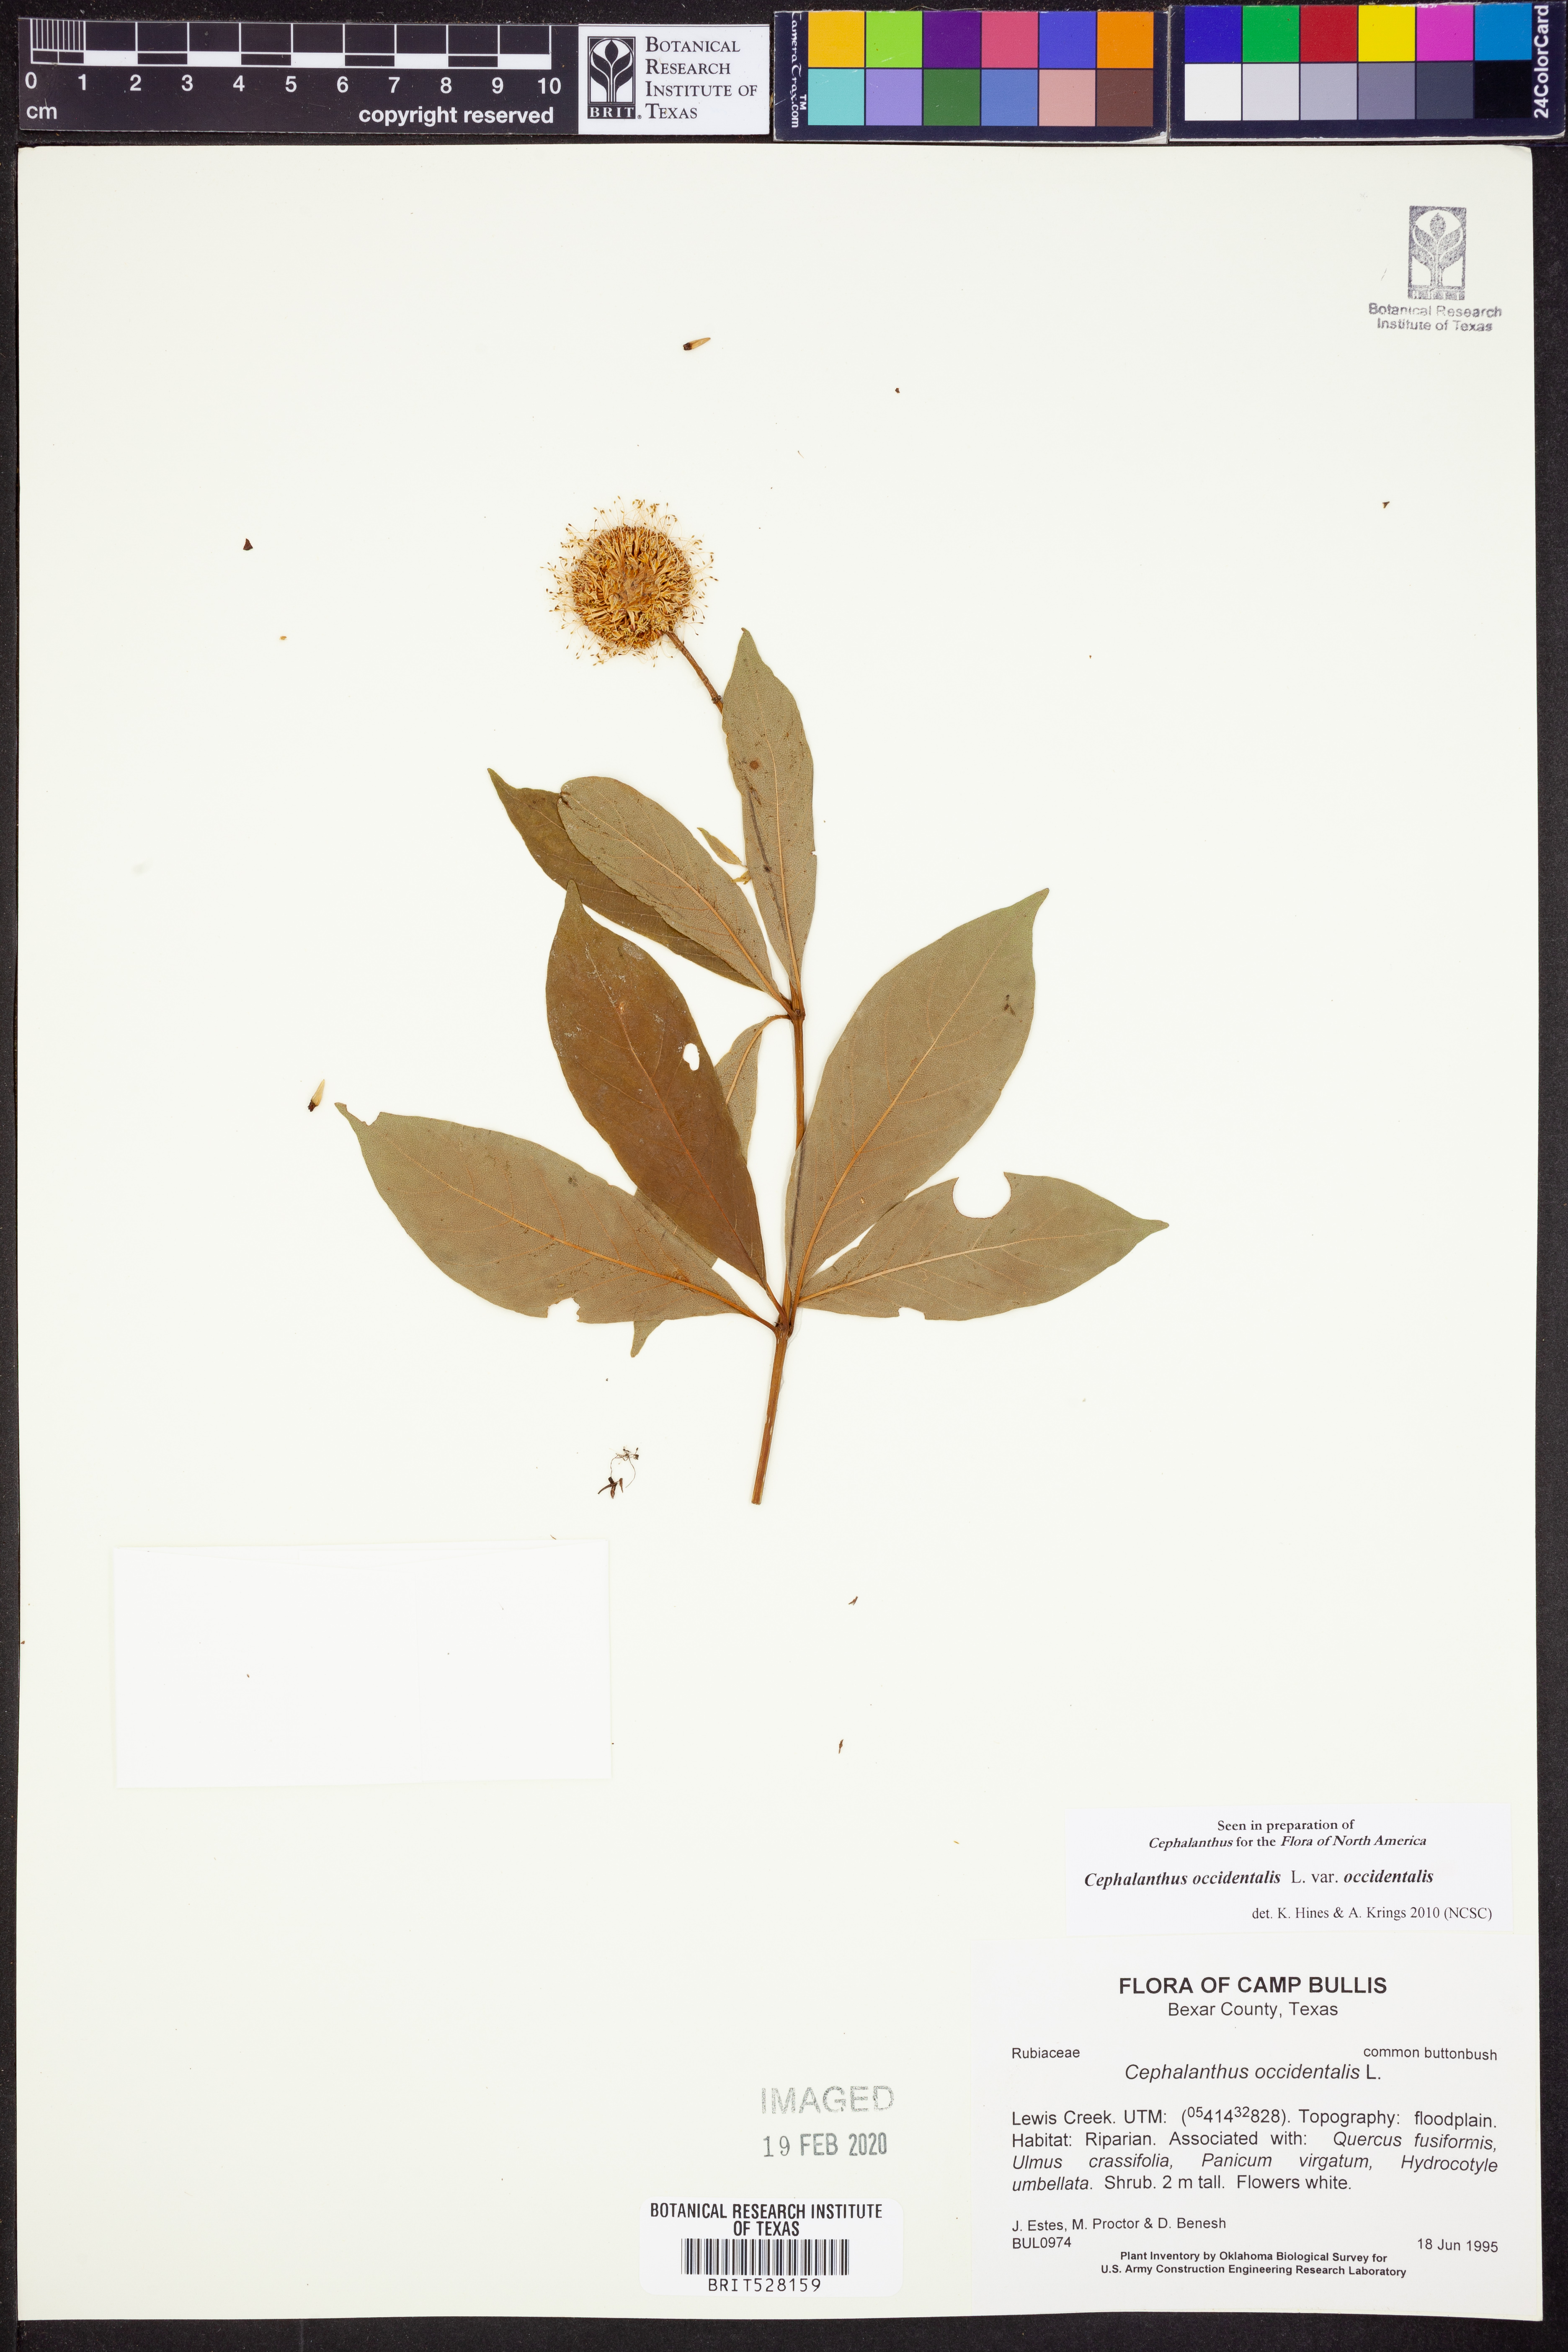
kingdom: Plantae
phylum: Tracheophyta
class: Magnoliopsida
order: Gentianales
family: Rubiaceae
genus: Cephalanthus
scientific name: Cephalanthus occidentalis
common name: Button-willow
